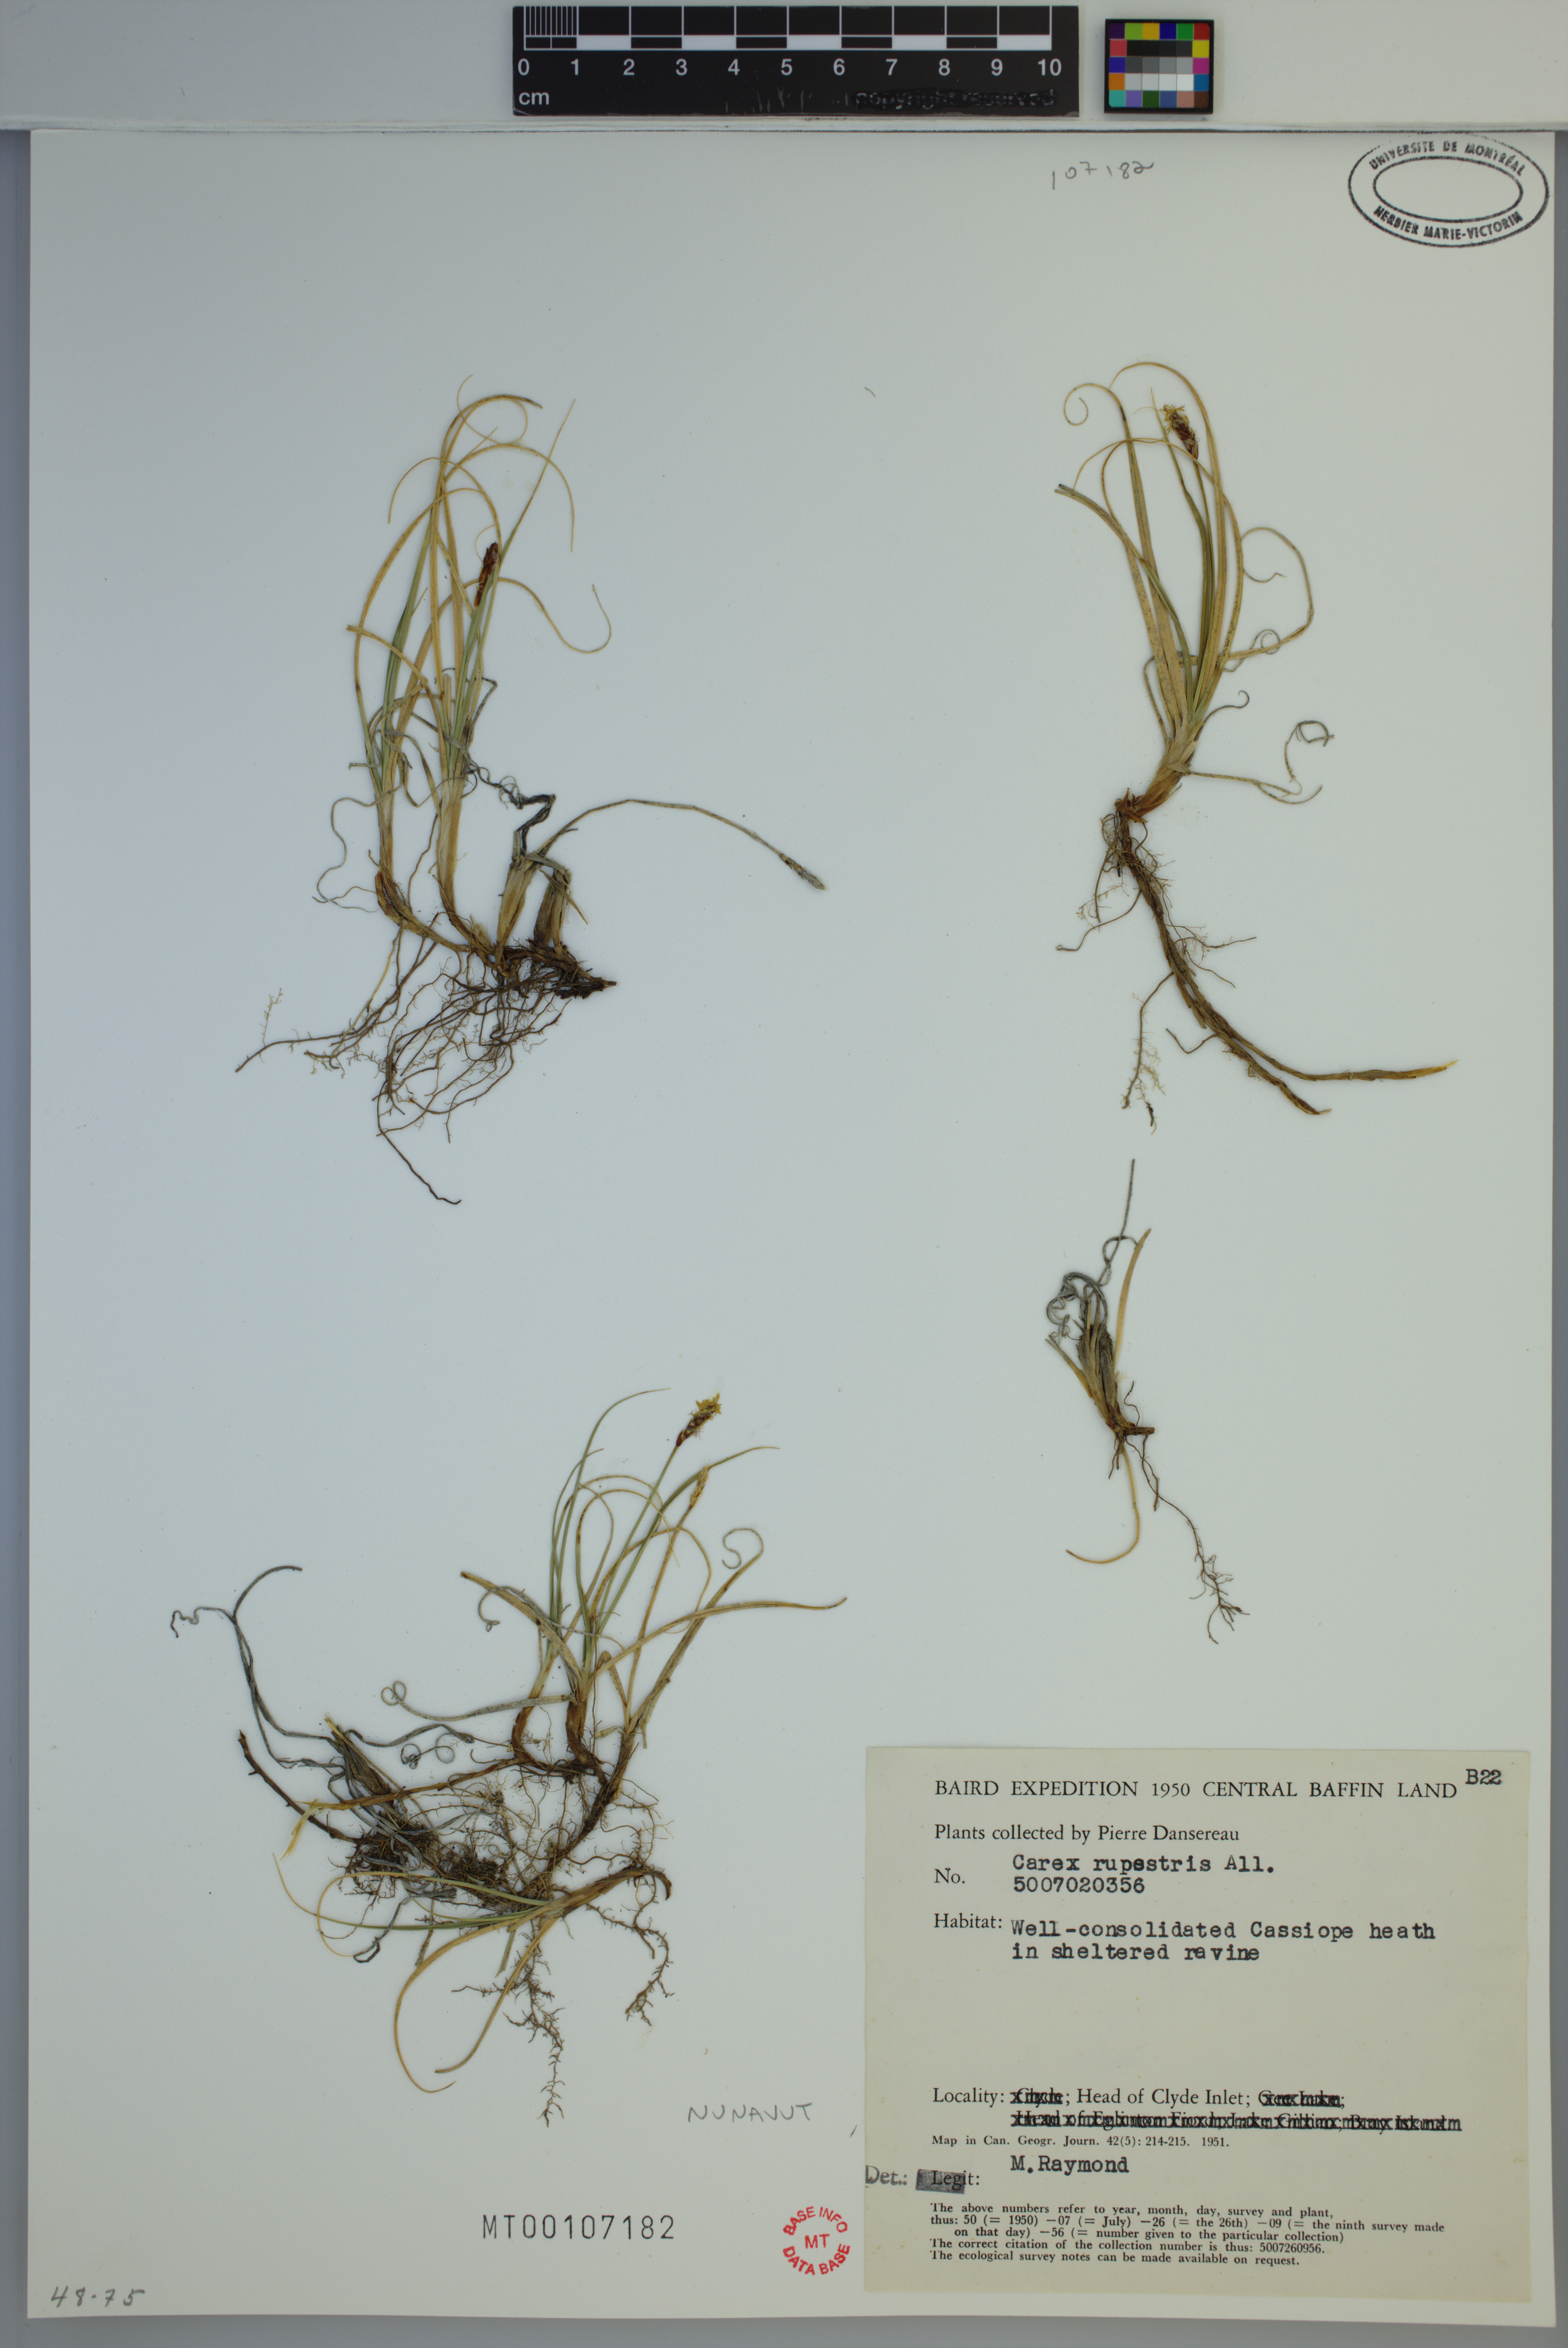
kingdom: Plantae
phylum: Tracheophyta
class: Liliopsida
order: Poales
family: Cyperaceae
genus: Carex
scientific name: Carex rupestris
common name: Rock sedge
